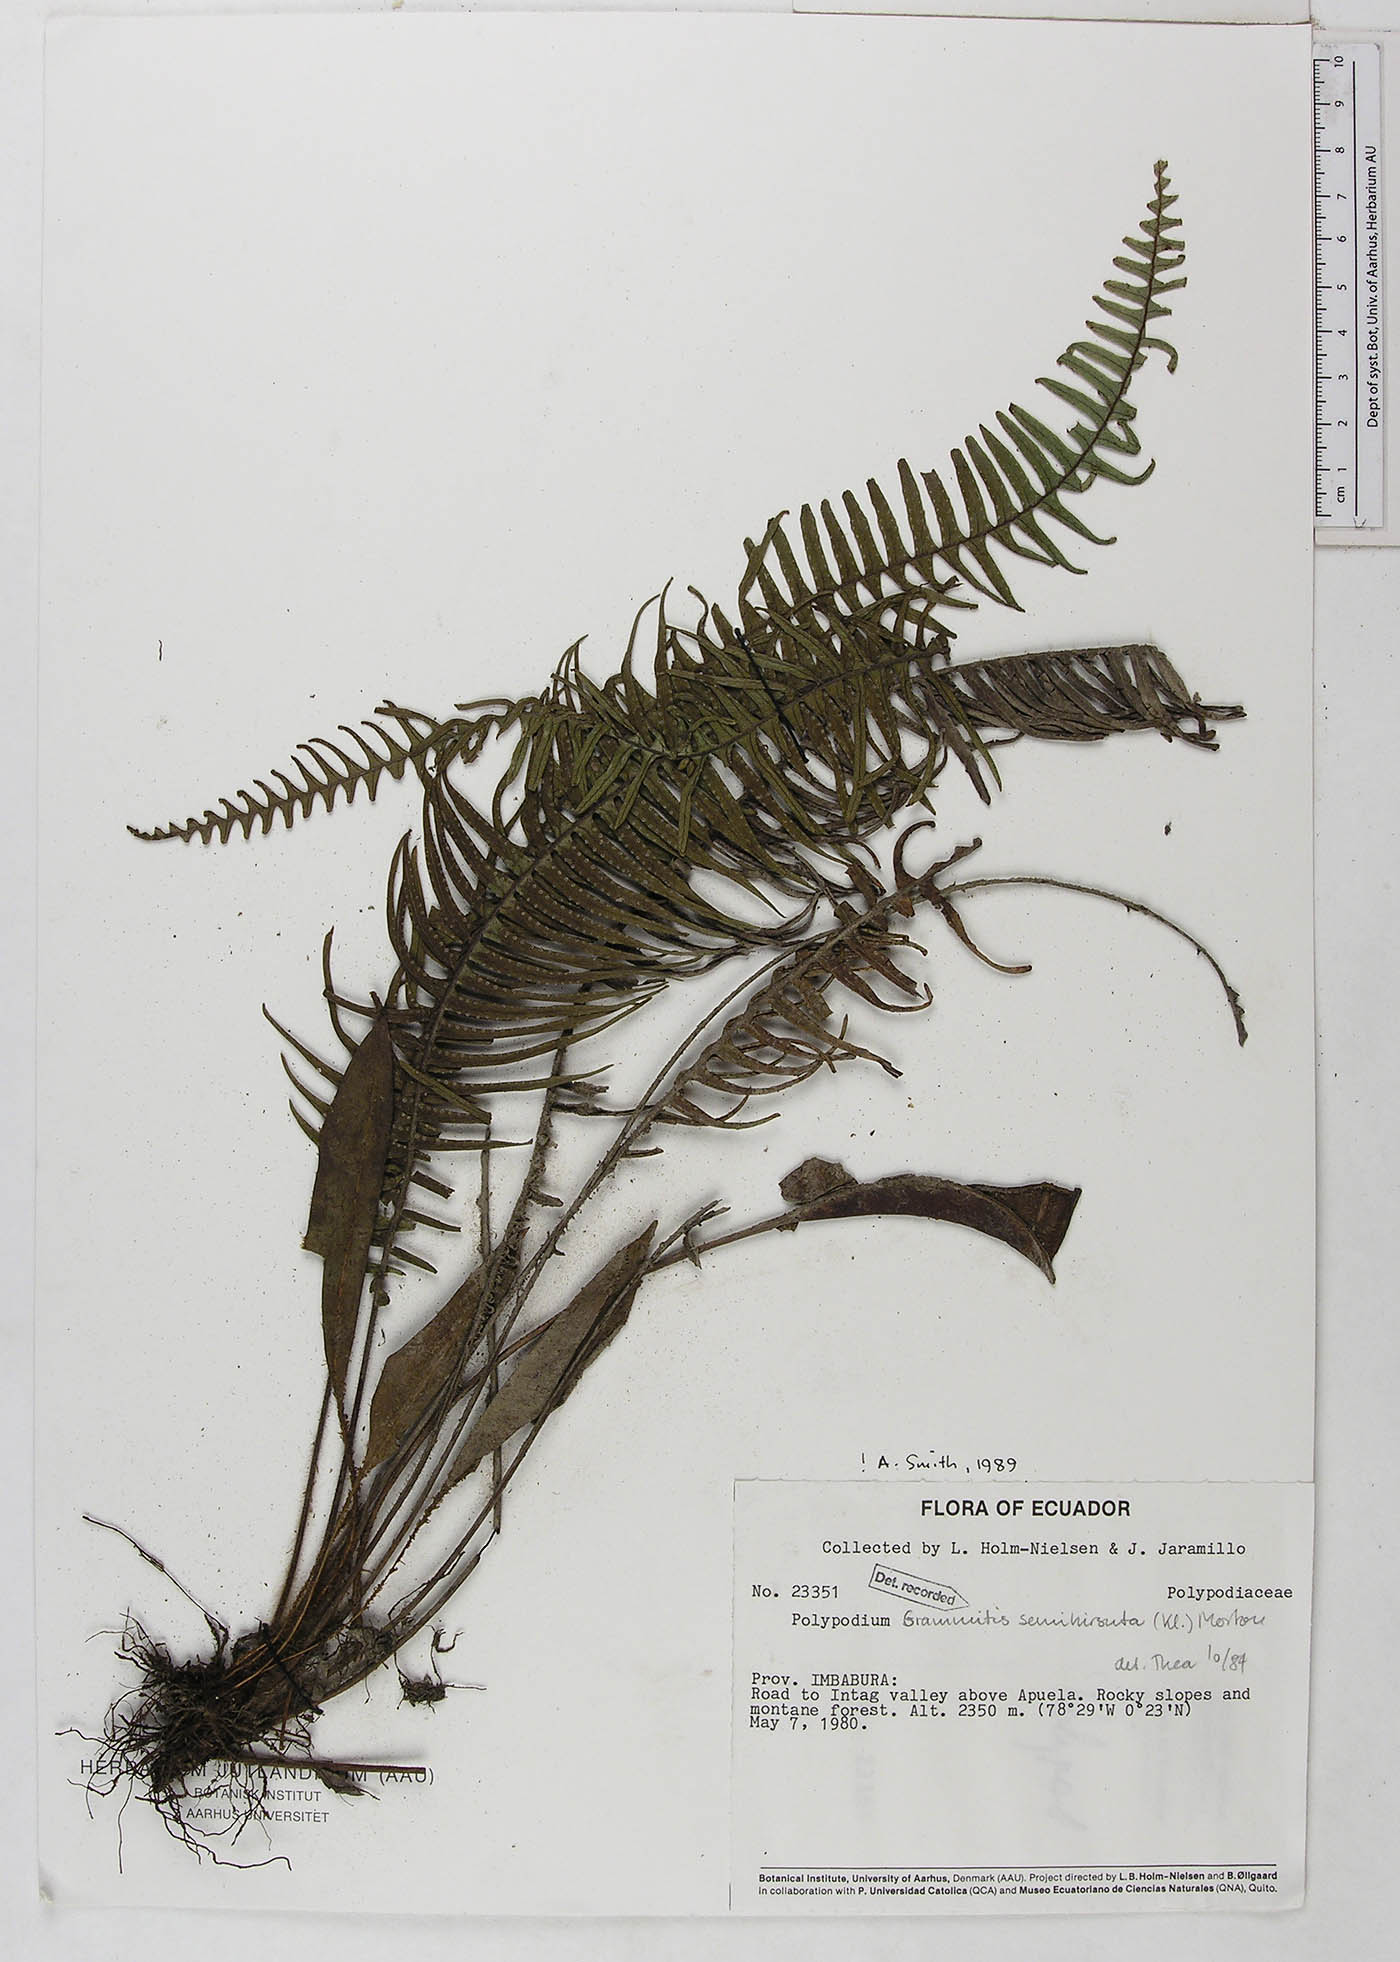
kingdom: Plantae
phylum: Tracheophyta
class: Polypodiopsida
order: Polypodiales
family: Polypodiaceae
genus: Mycopteris
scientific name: Mycopteris semihirsuta
